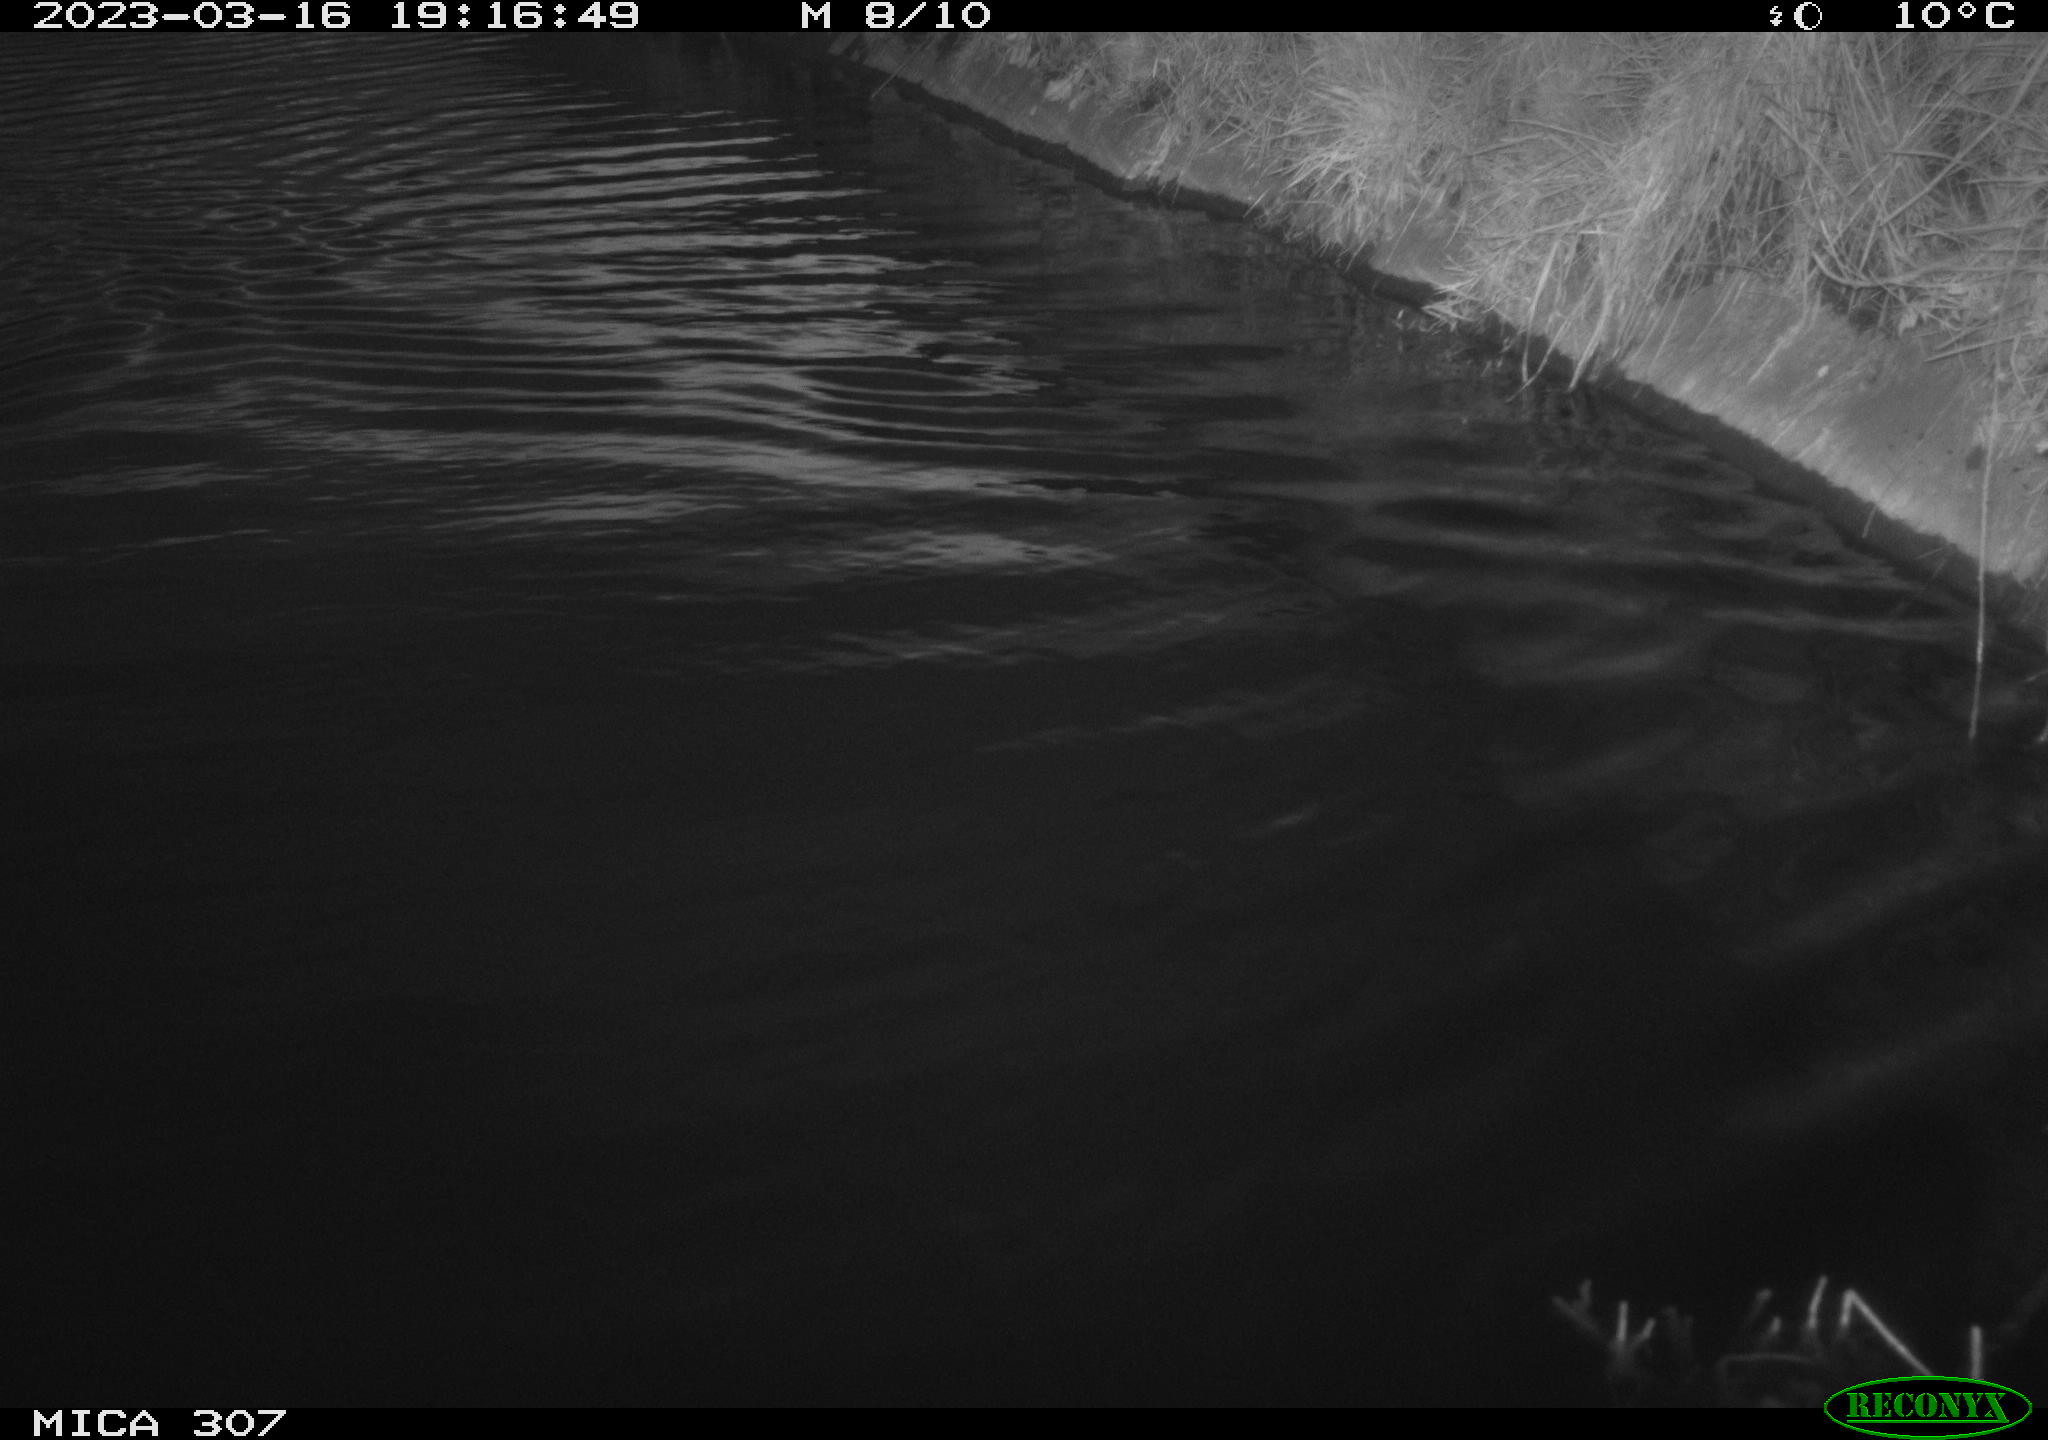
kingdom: Animalia
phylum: Chordata
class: Aves
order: Anseriformes
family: Anatidae
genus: Anas
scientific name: Anas
